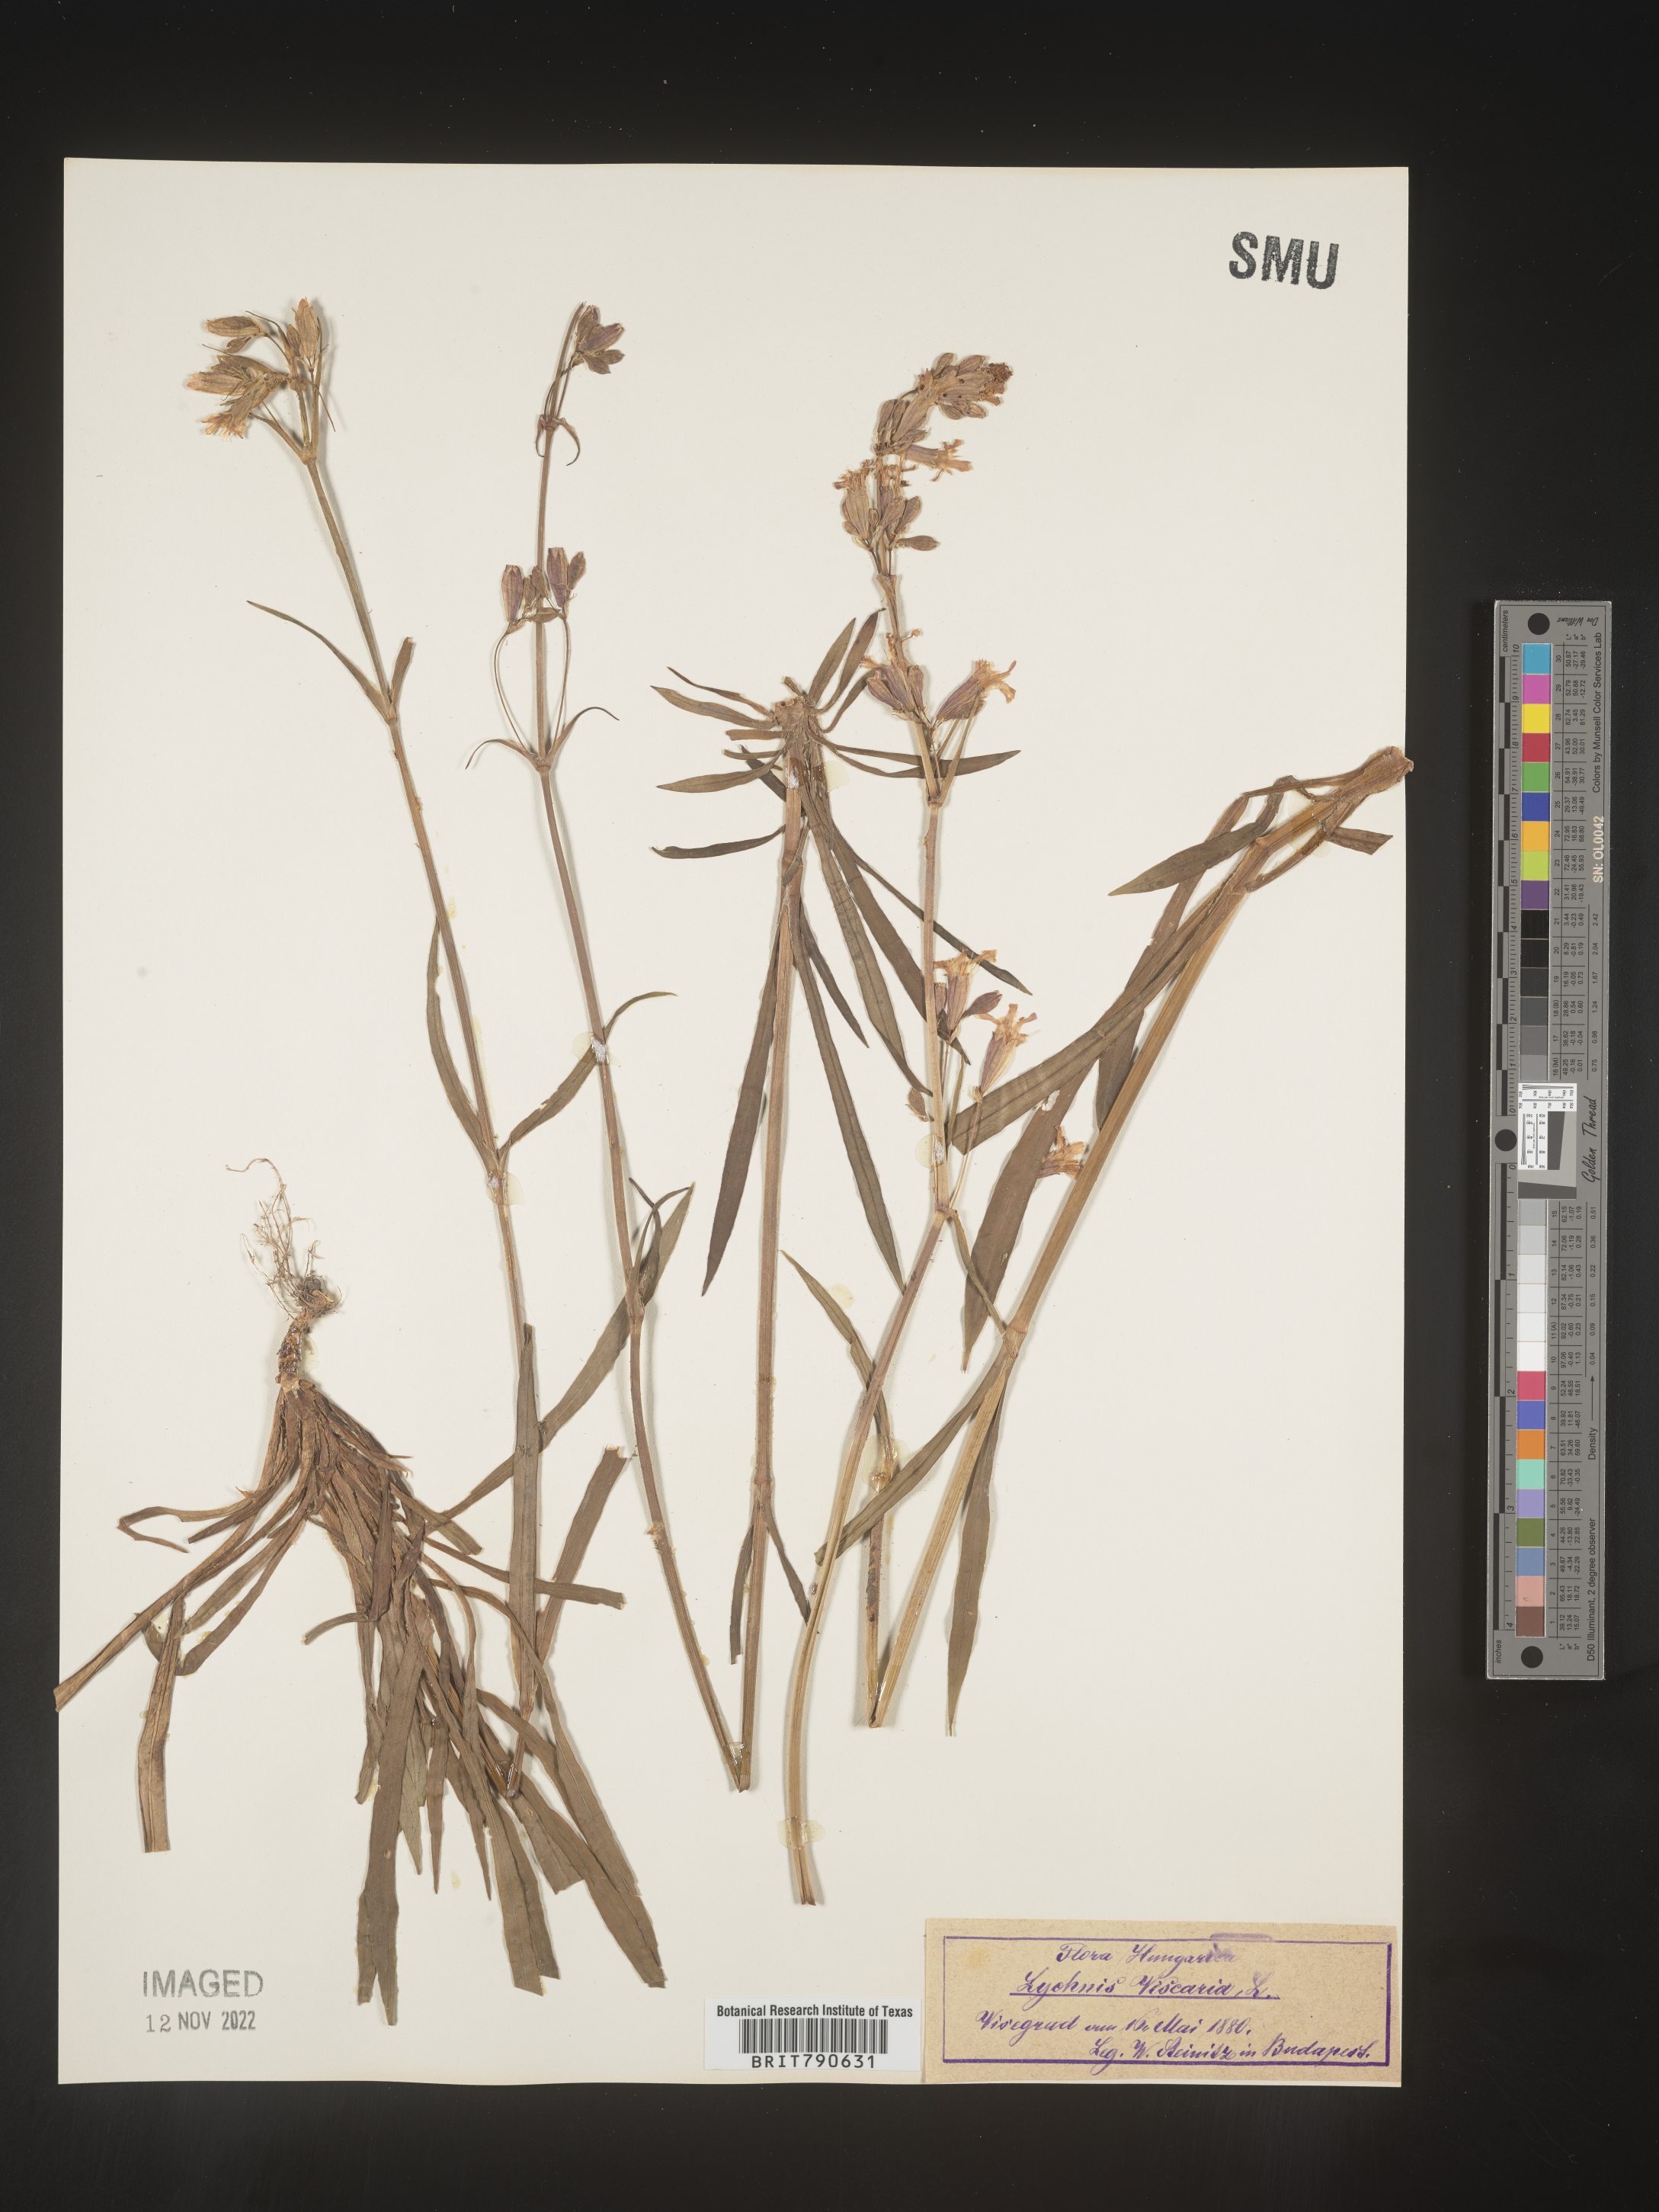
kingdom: Plantae
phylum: Tracheophyta
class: Magnoliopsida
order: Caryophyllales
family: Caryophyllaceae
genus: Silene
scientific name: Silene
